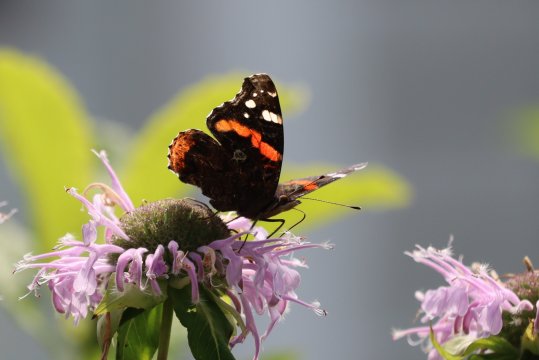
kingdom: Animalia
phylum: Arthropoda
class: Insecta
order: Lepidoptera
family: Nymphalidae
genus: Vanessa
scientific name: Vanessa atalanta
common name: Red Admiral
